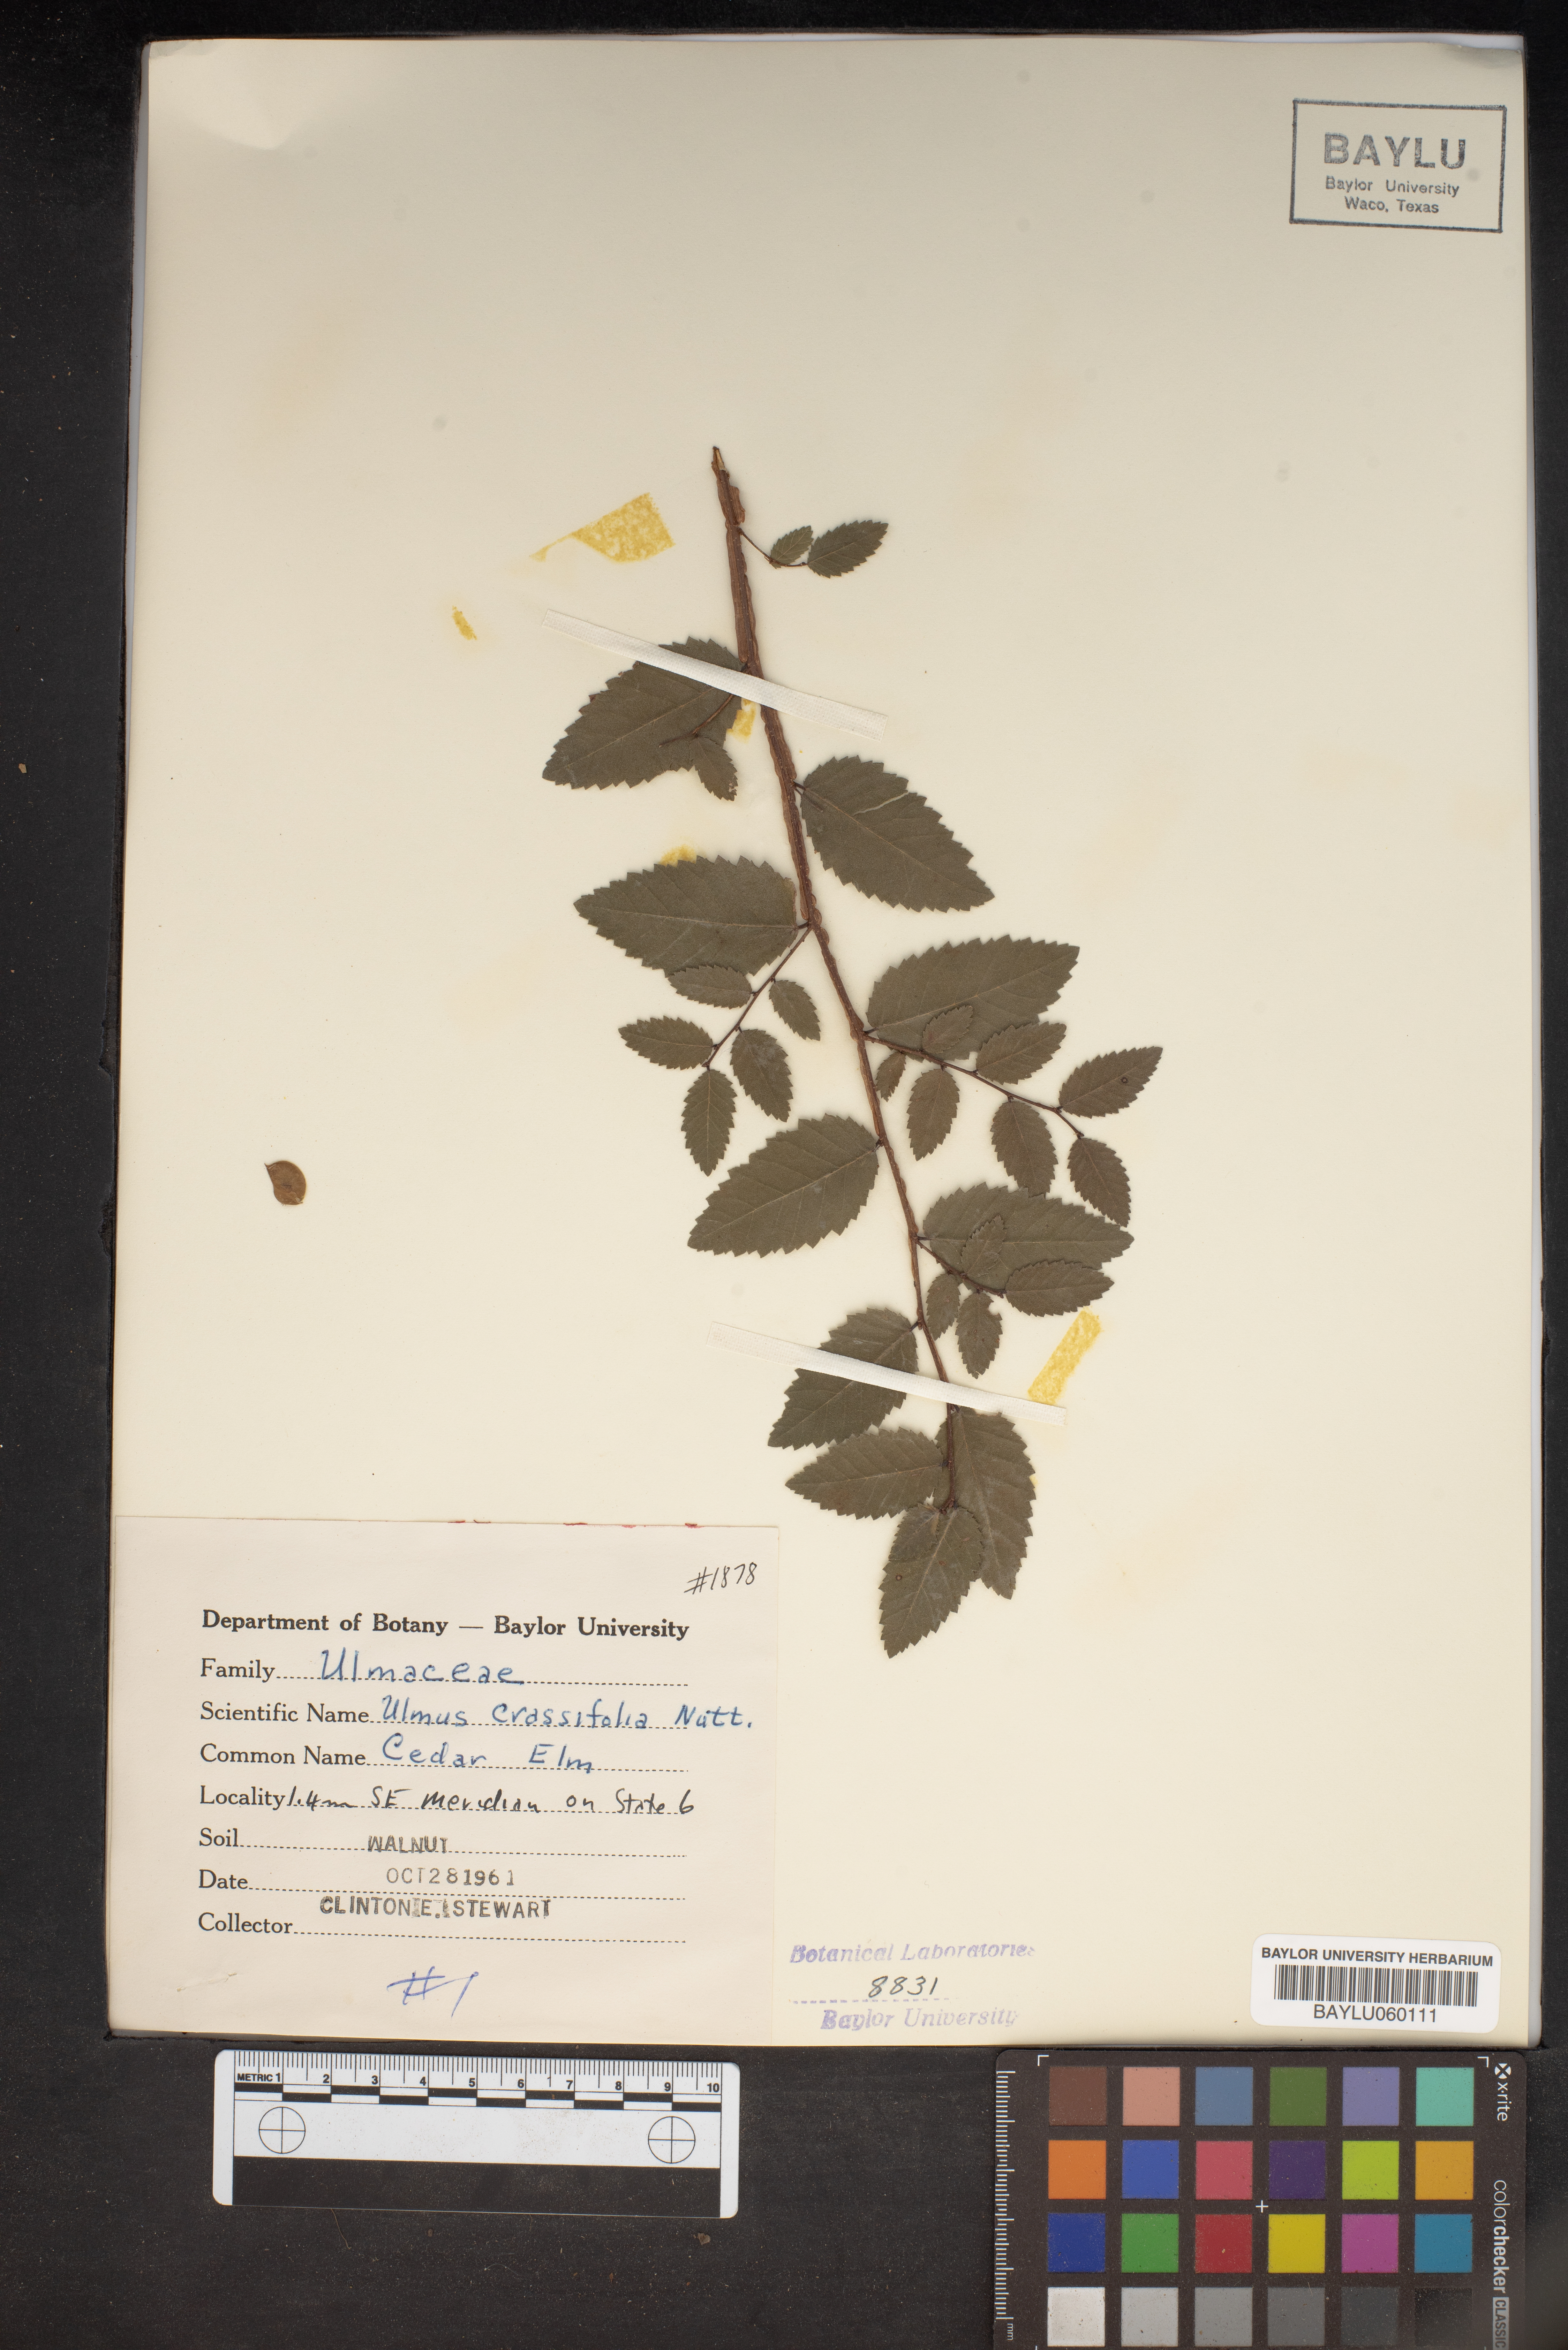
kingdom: Plantae
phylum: Tracheophyta
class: Magnoliopsida
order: Rosales
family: Ulmaceae
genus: Ulmus
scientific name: Ulmus crassifolia
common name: Basket elm
